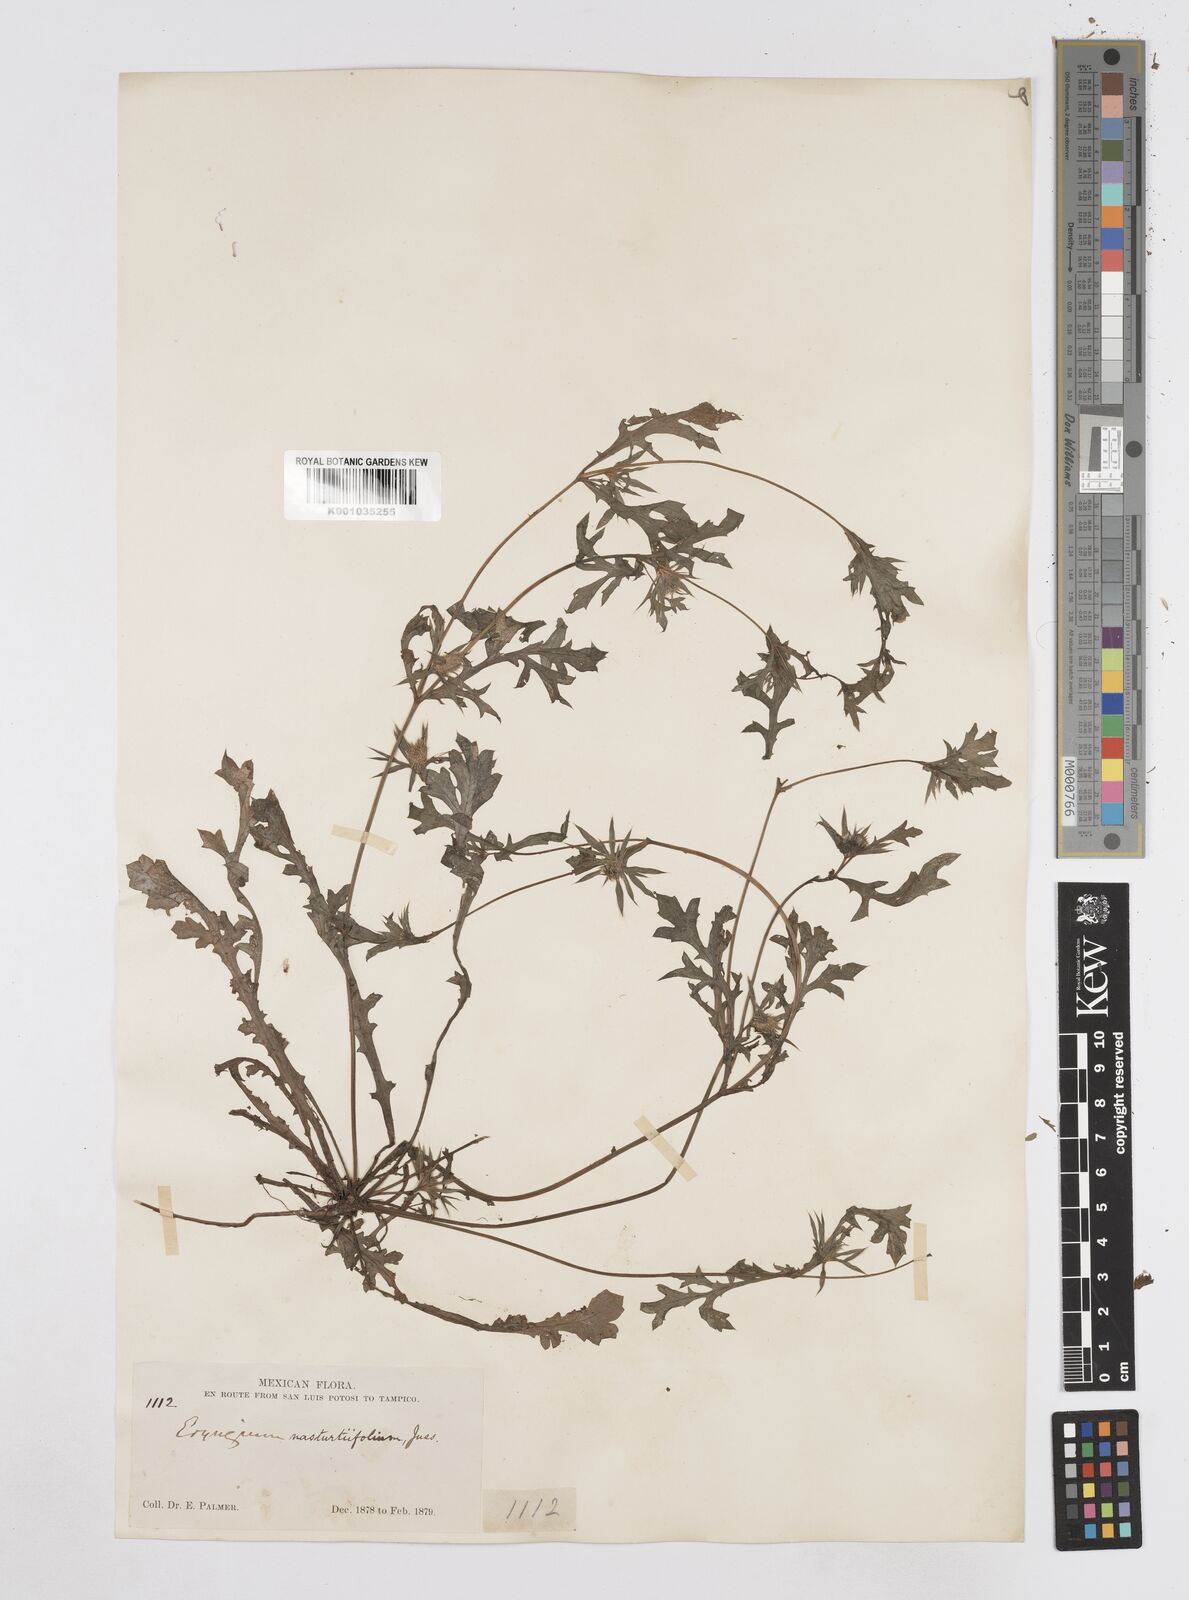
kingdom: Plantae
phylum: Tracheophyta
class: Magnoliopsida
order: Apiales
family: Apiaceae
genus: Eryngium
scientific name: Eryngium nasturtiifolium
